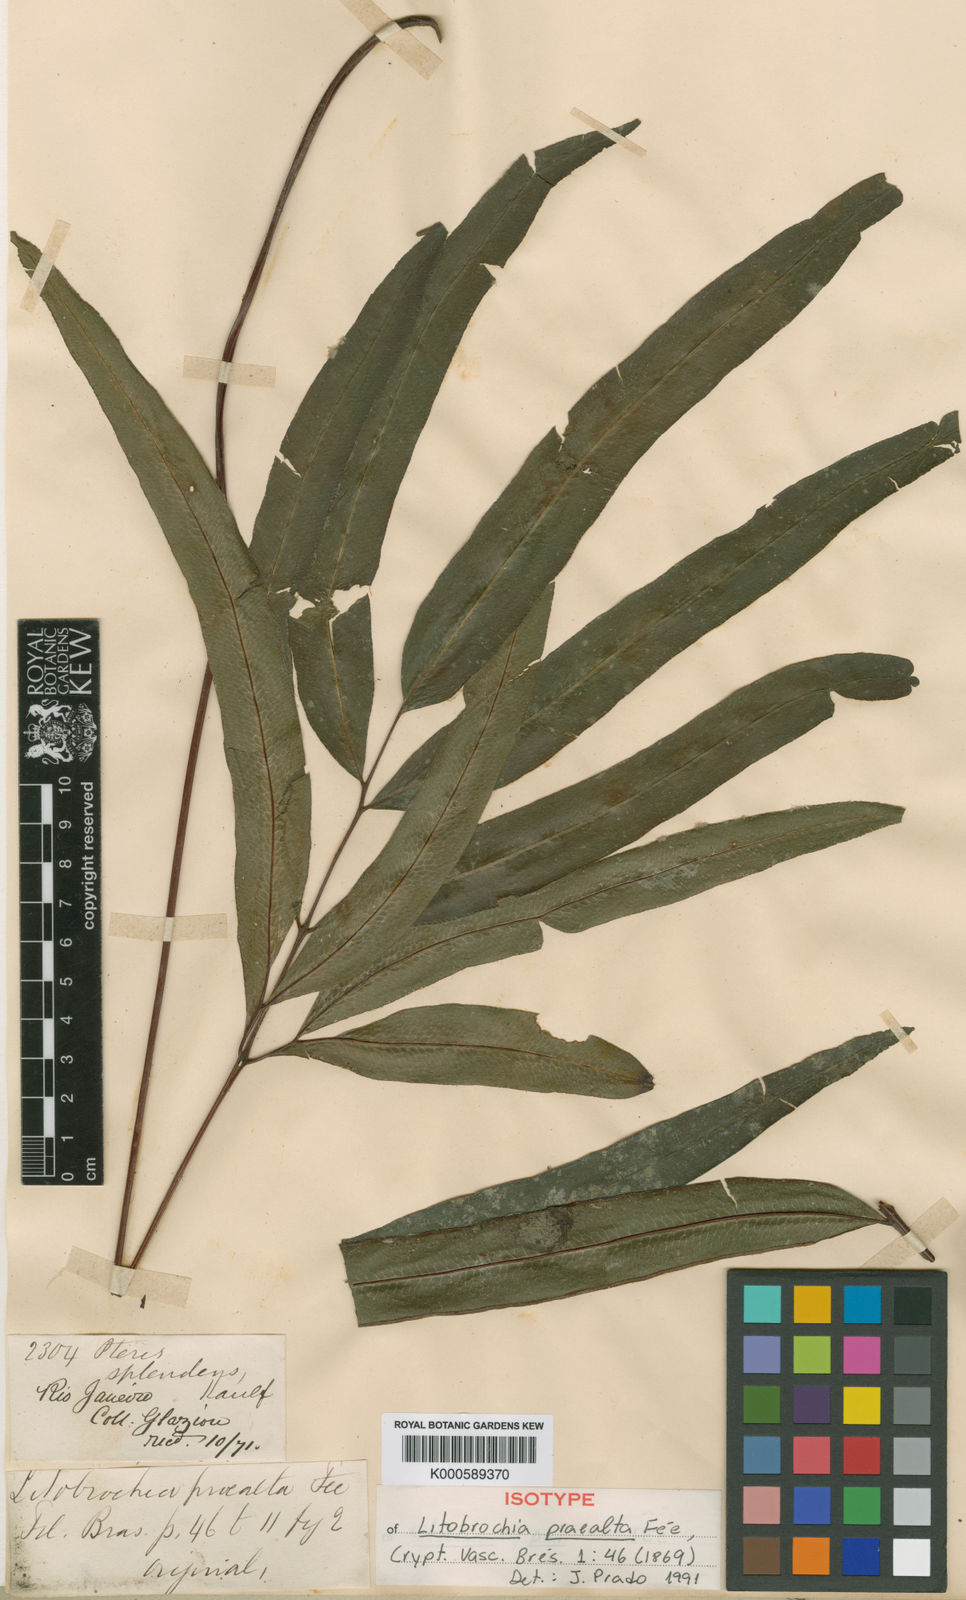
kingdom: Plantae
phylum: Tracheophyta
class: Polypodiopsida
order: Polypodiales
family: Pteridaceae
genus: Pteris
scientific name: Pteris splendens
